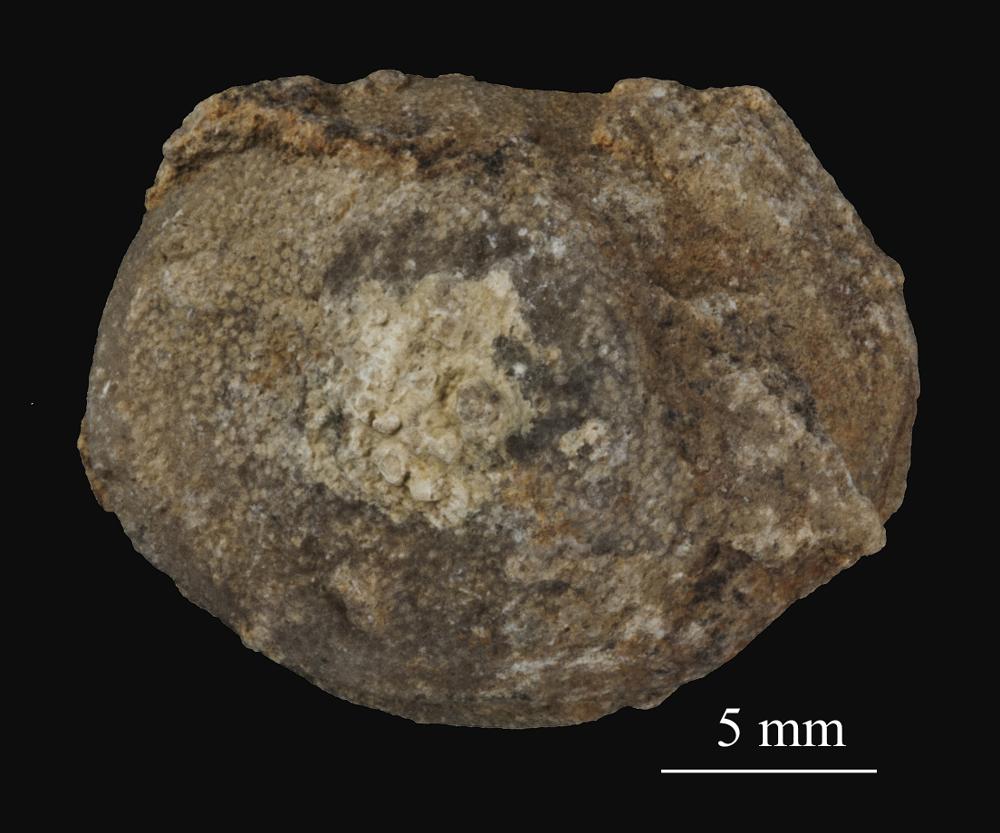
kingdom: Animalia
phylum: Bryozoa
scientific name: Bryozoa
